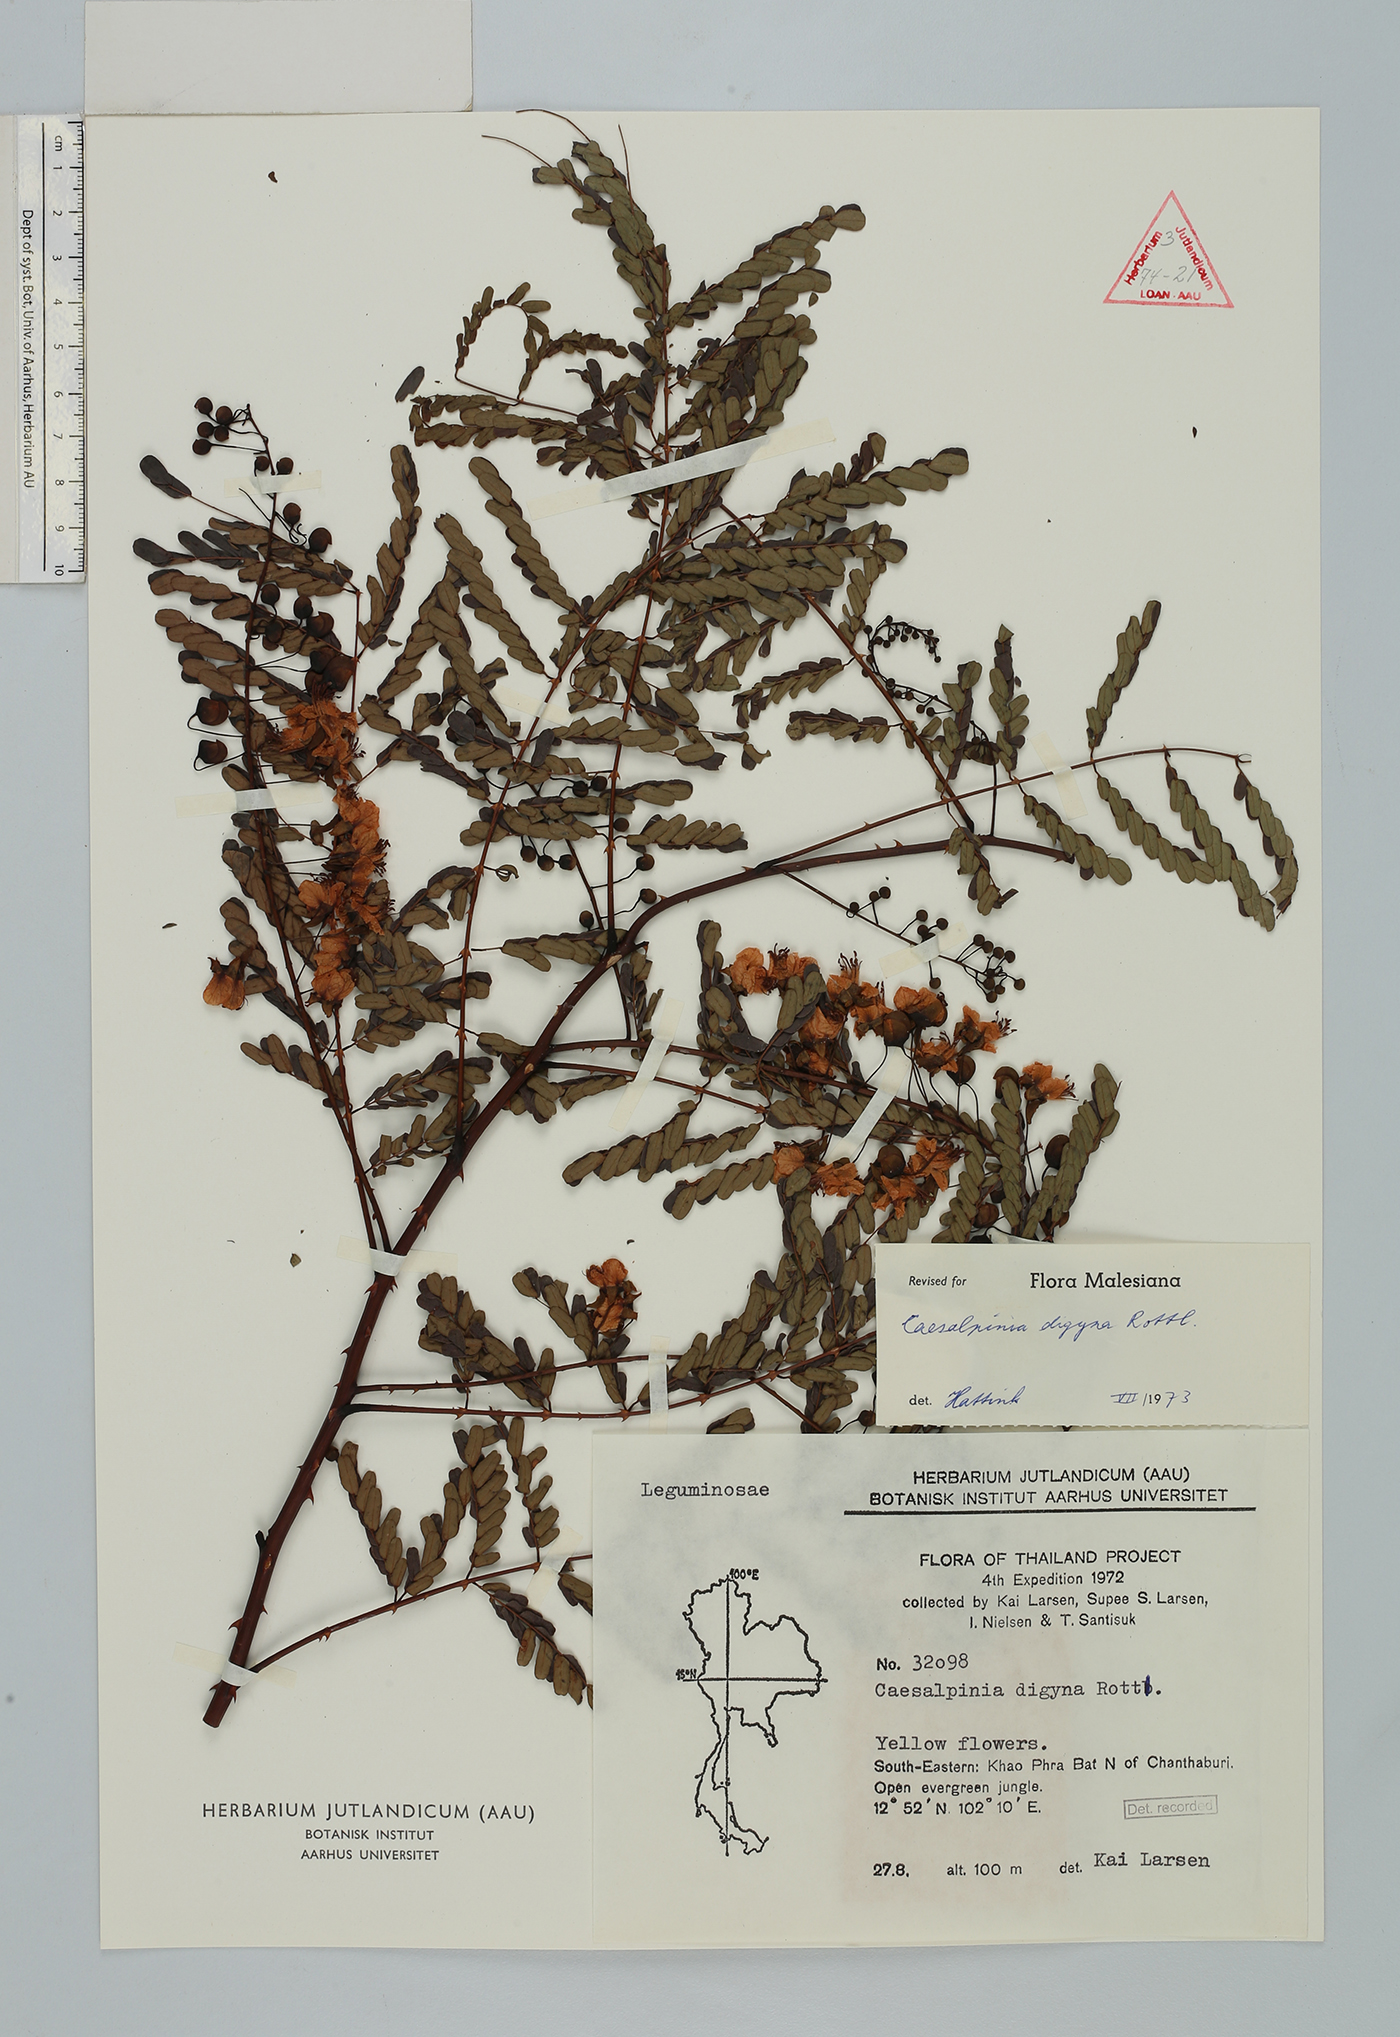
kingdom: Plantae
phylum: Tracheophyta
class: Magnoliopsida
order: Fabales
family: Fabaceae
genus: Moullava
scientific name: Moullava digyna
